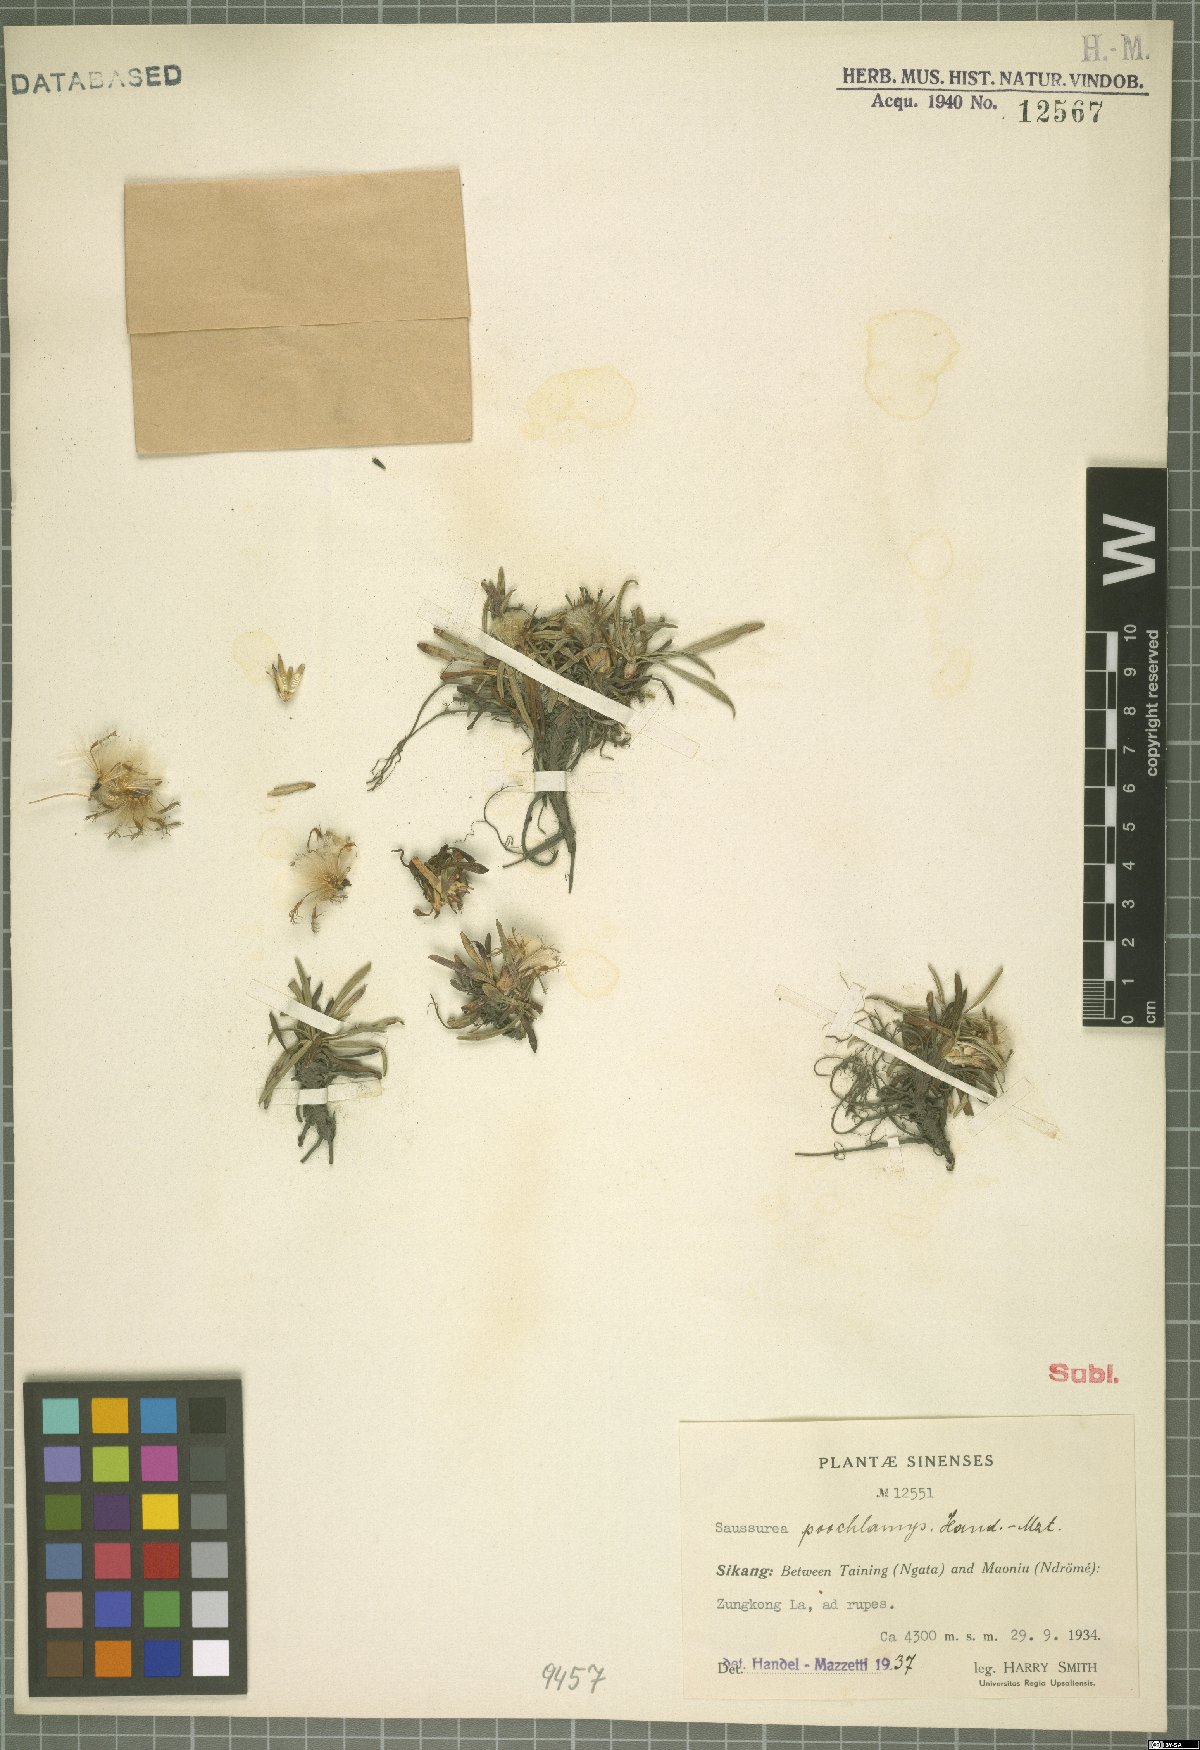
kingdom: Plantae
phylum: Tracheophyta
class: Magnoliopsida
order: Asterales
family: Asteraceae
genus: Saussurea
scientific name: Saussurea poochlamys
